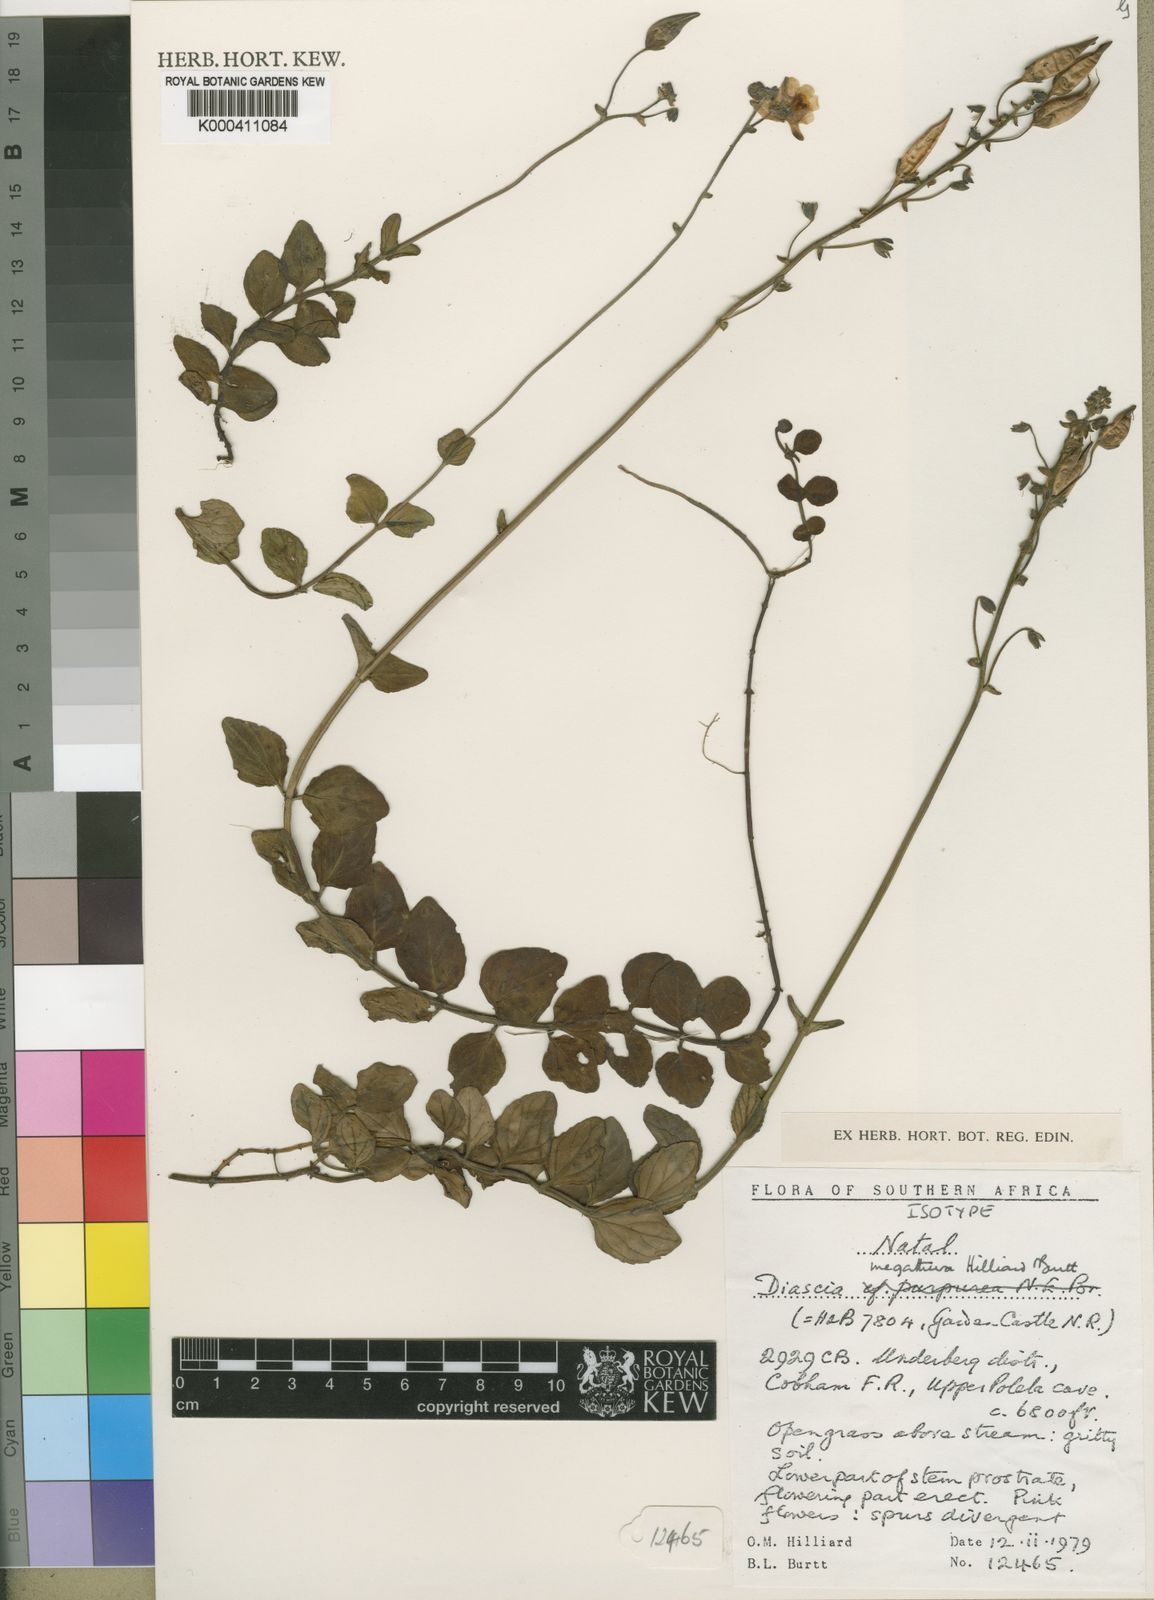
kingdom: Plantae
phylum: Tracheophyta
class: Magnoliopsida
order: Lamiales
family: Scrophulariaceae
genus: Diascia
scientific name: Diascia megathura
